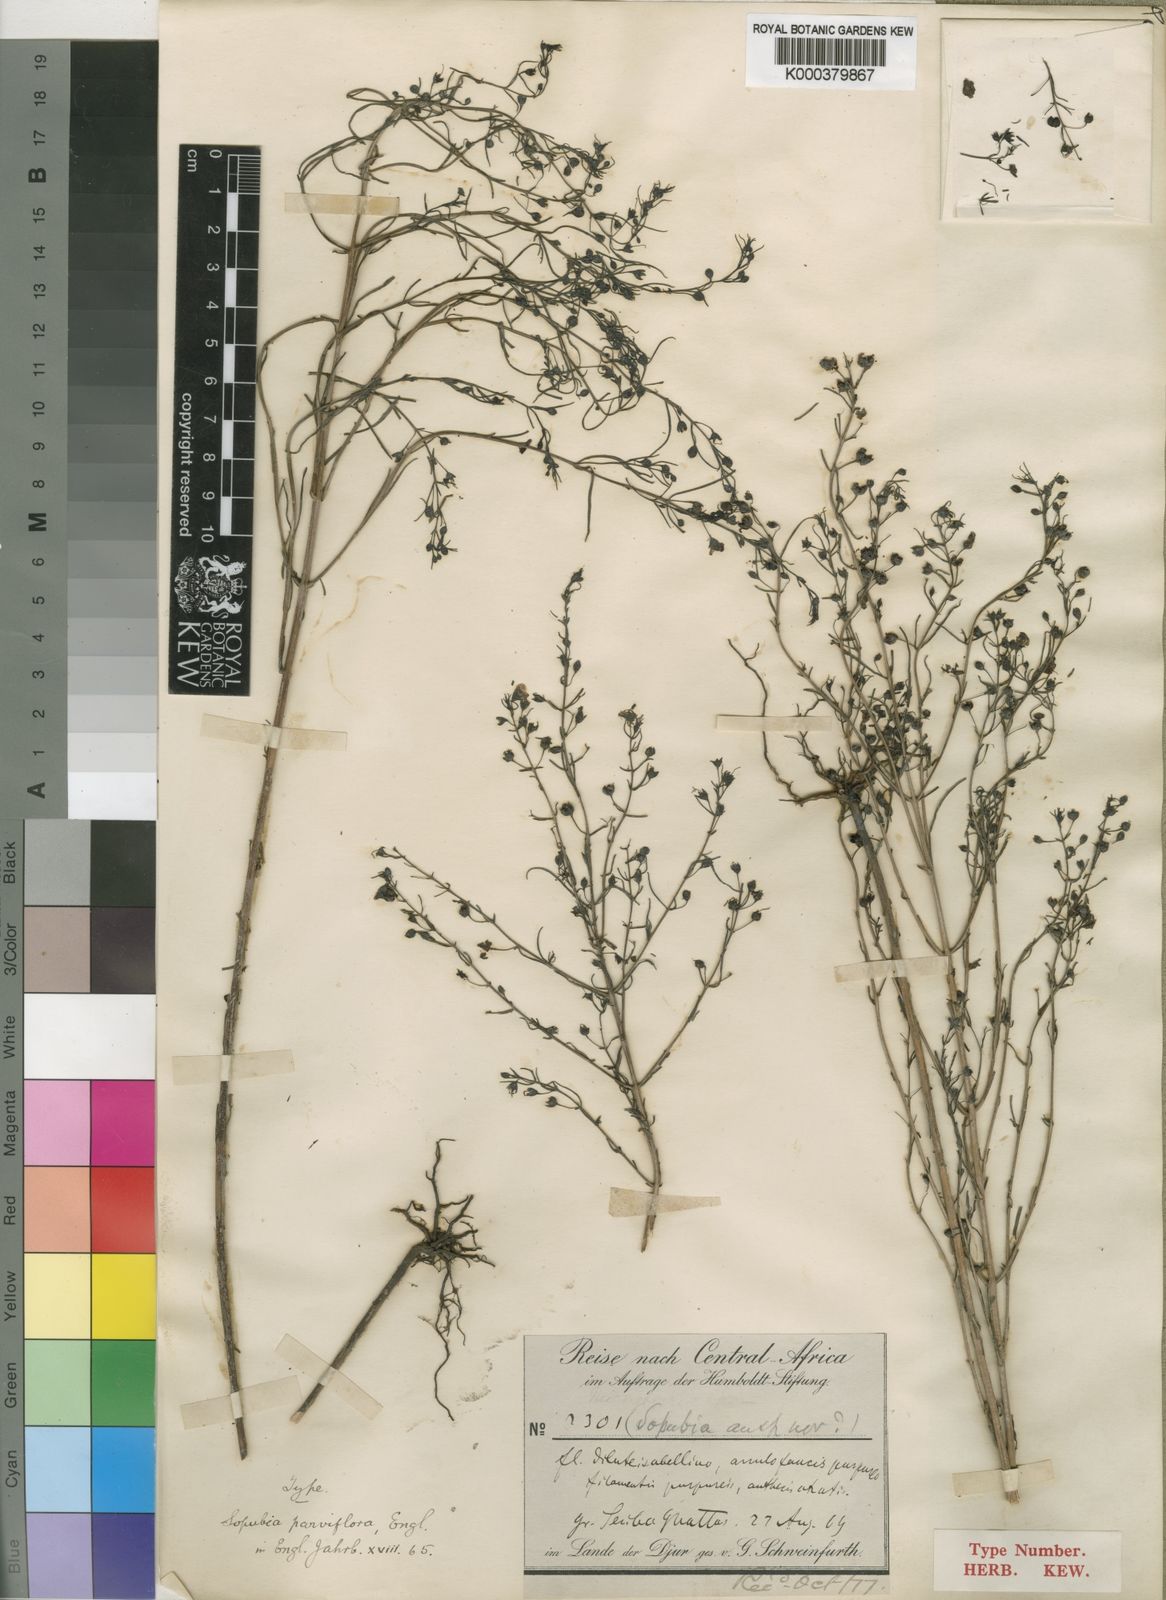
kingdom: Plantae
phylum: Tracheophyta
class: Magnoliopsida
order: Lamiales
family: Orobanchaceae
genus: Sopubia
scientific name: Sopubia parviflora
